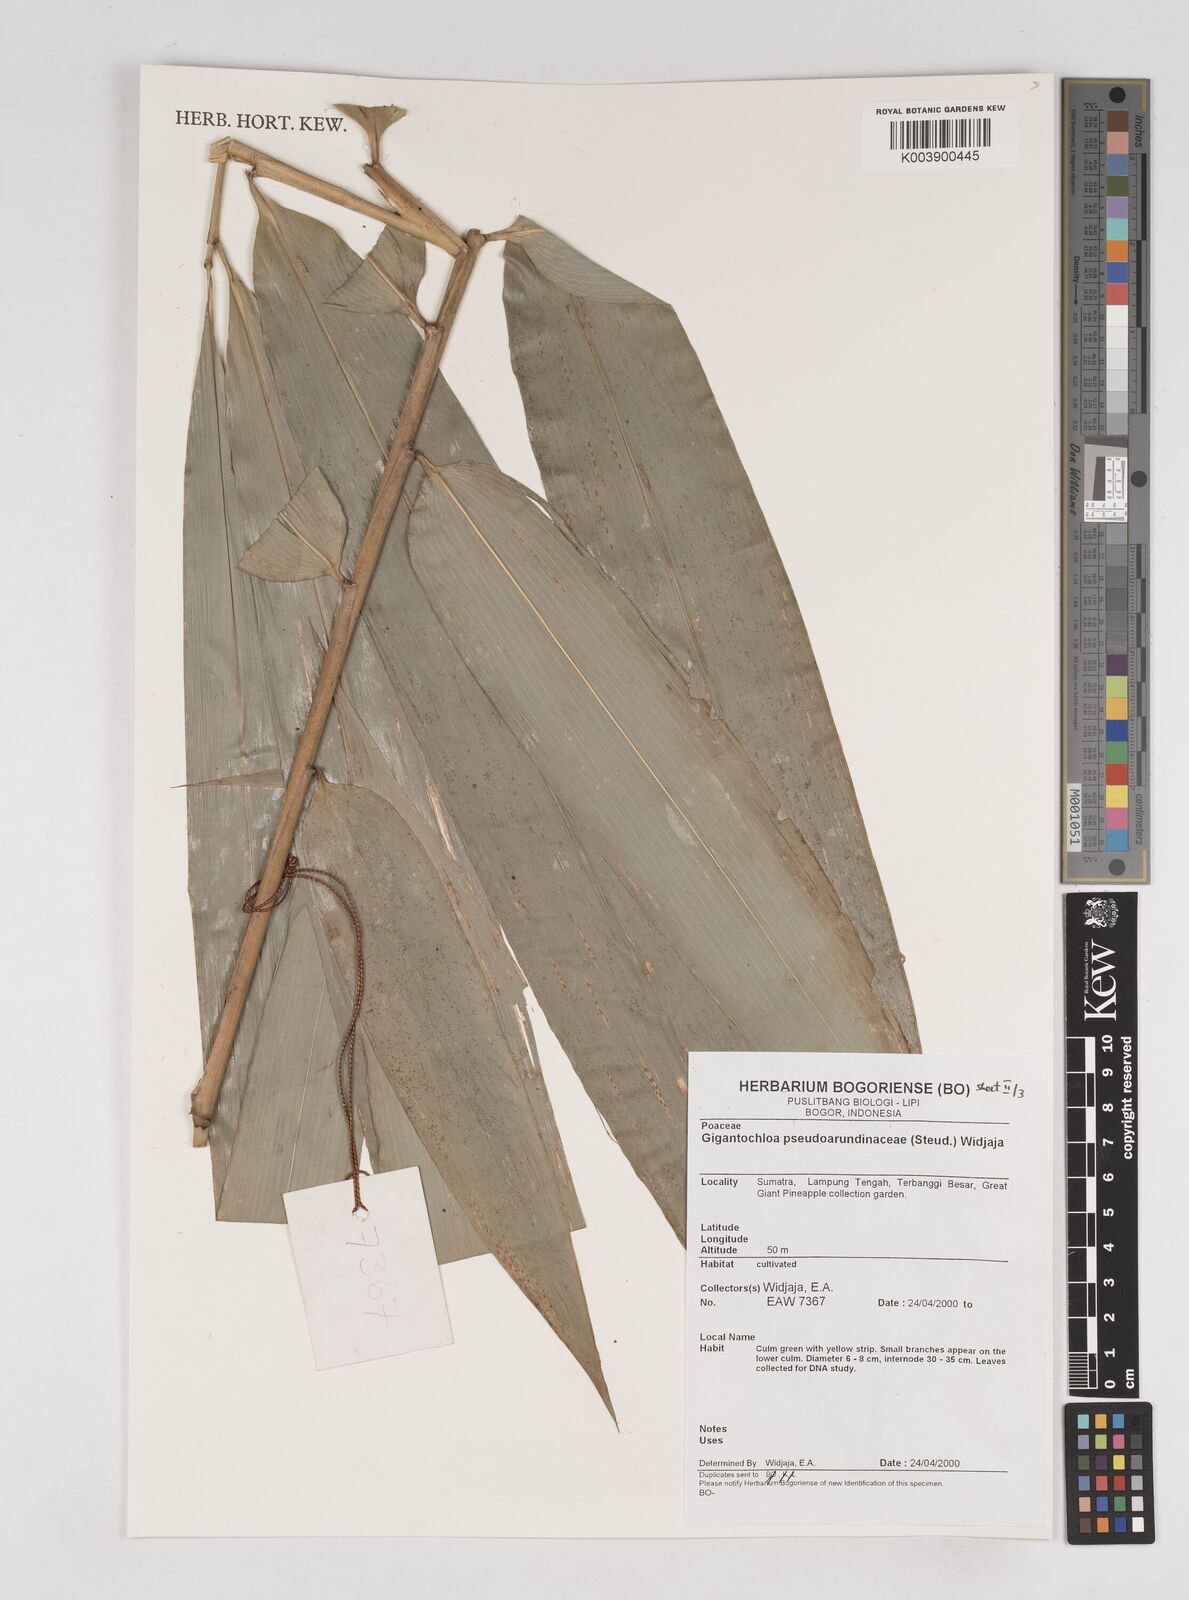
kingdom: Plantae
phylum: Tracheophyta
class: Liliopsida
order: Poales
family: Poaceae
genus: Gigantochloa
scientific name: Gigantochloa verticillata
